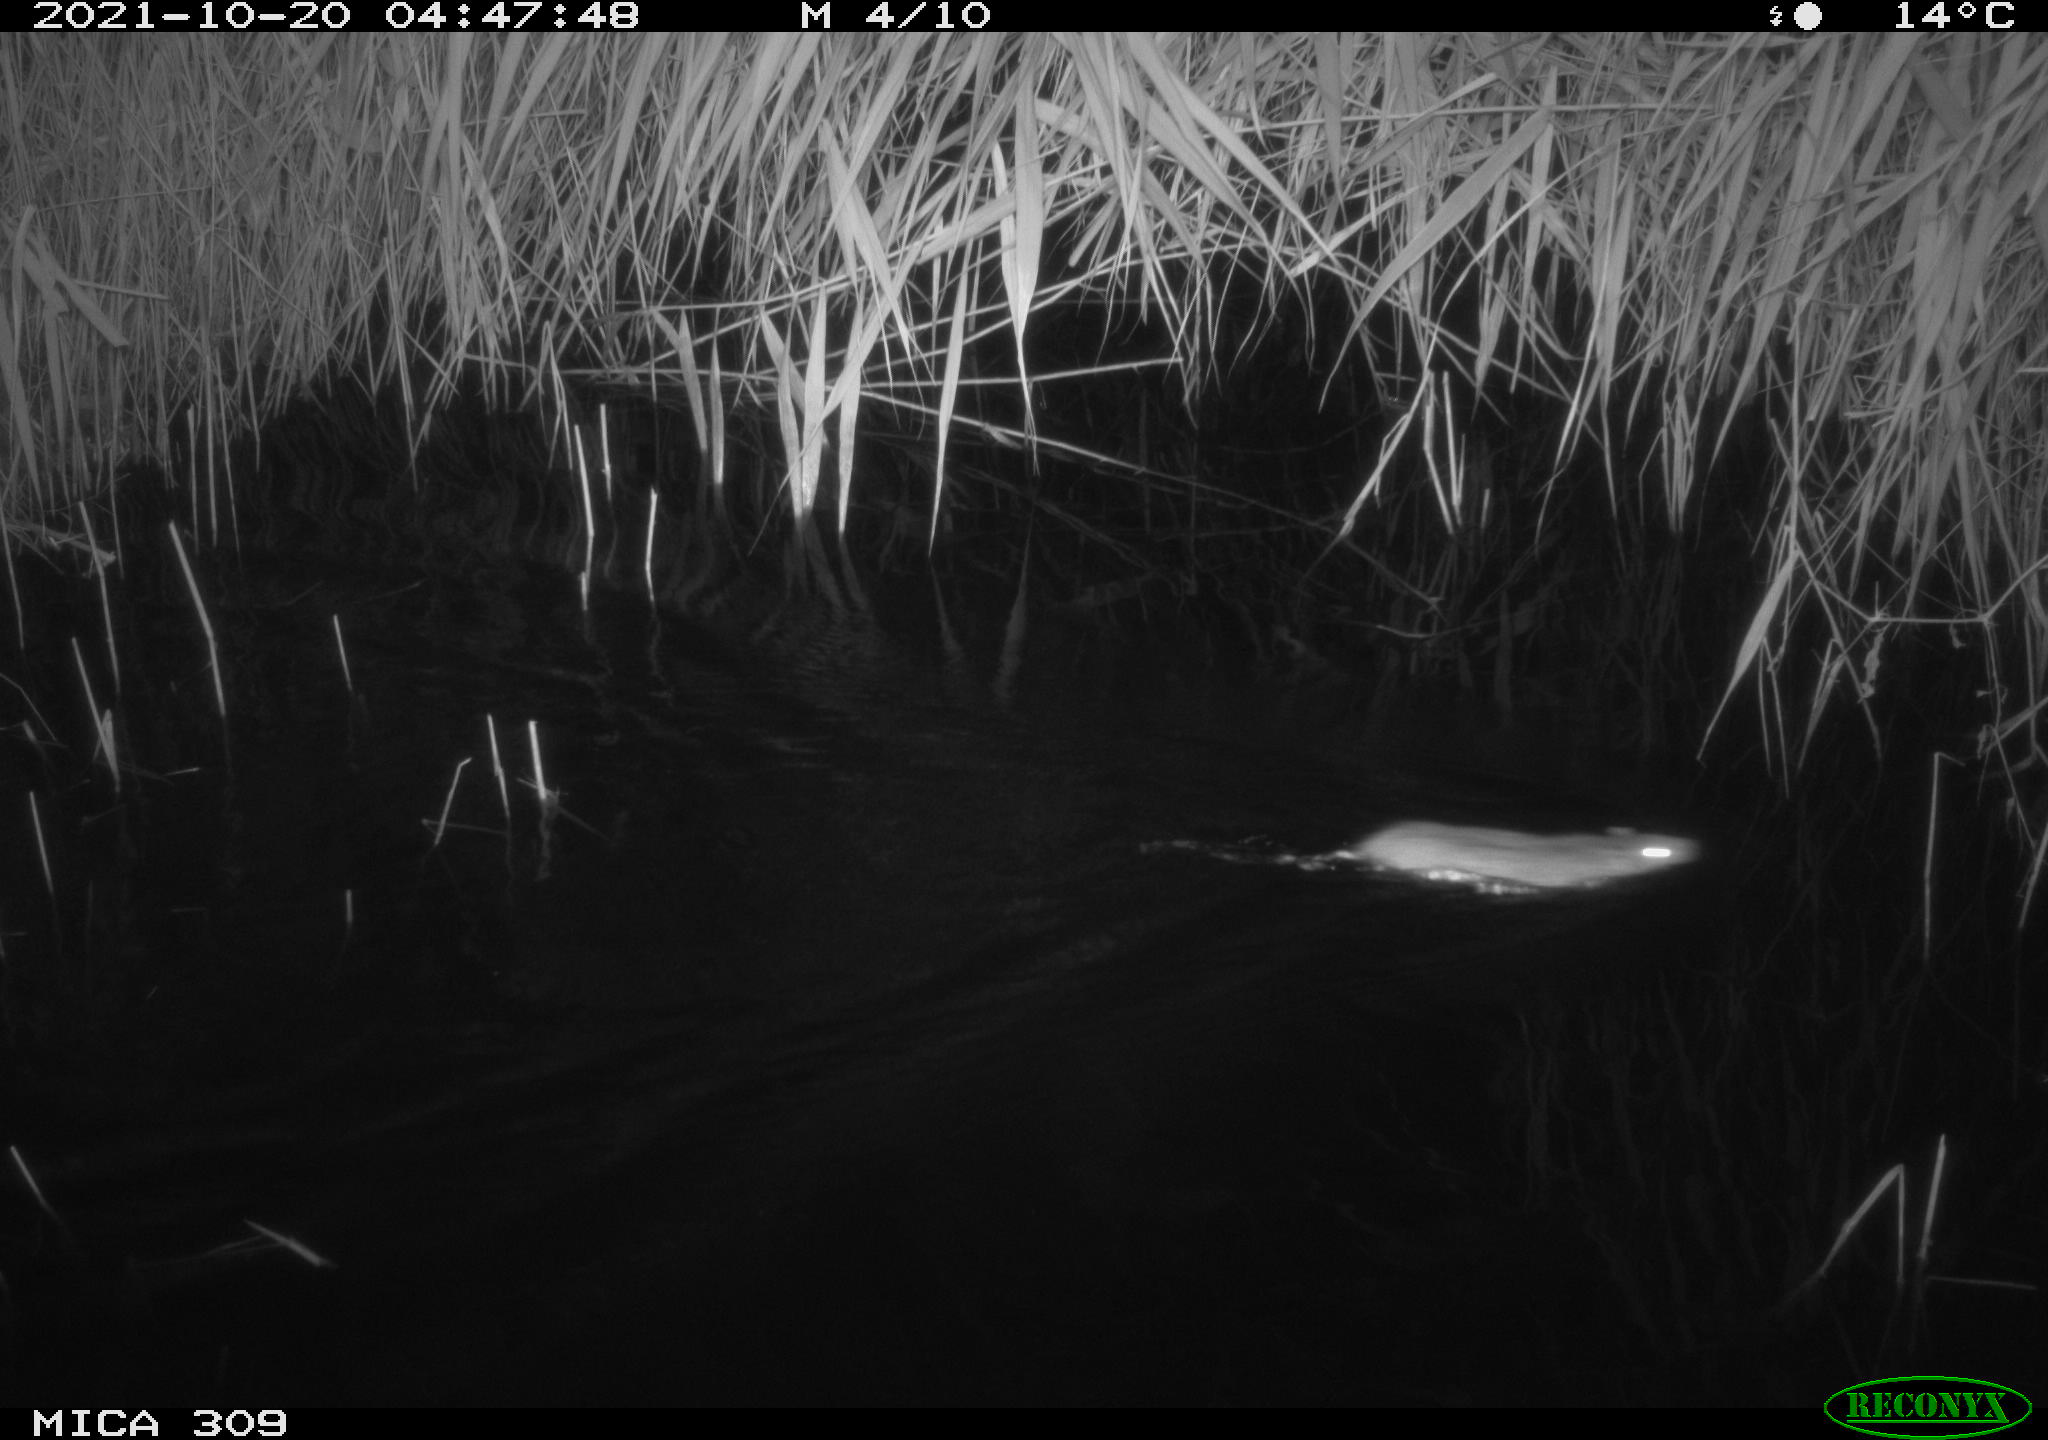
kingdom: Animalia
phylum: Chordata
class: Mammalia
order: Rodentia
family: Muridae
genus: Rattus
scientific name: Rattus norvegicus
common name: Brown rat
